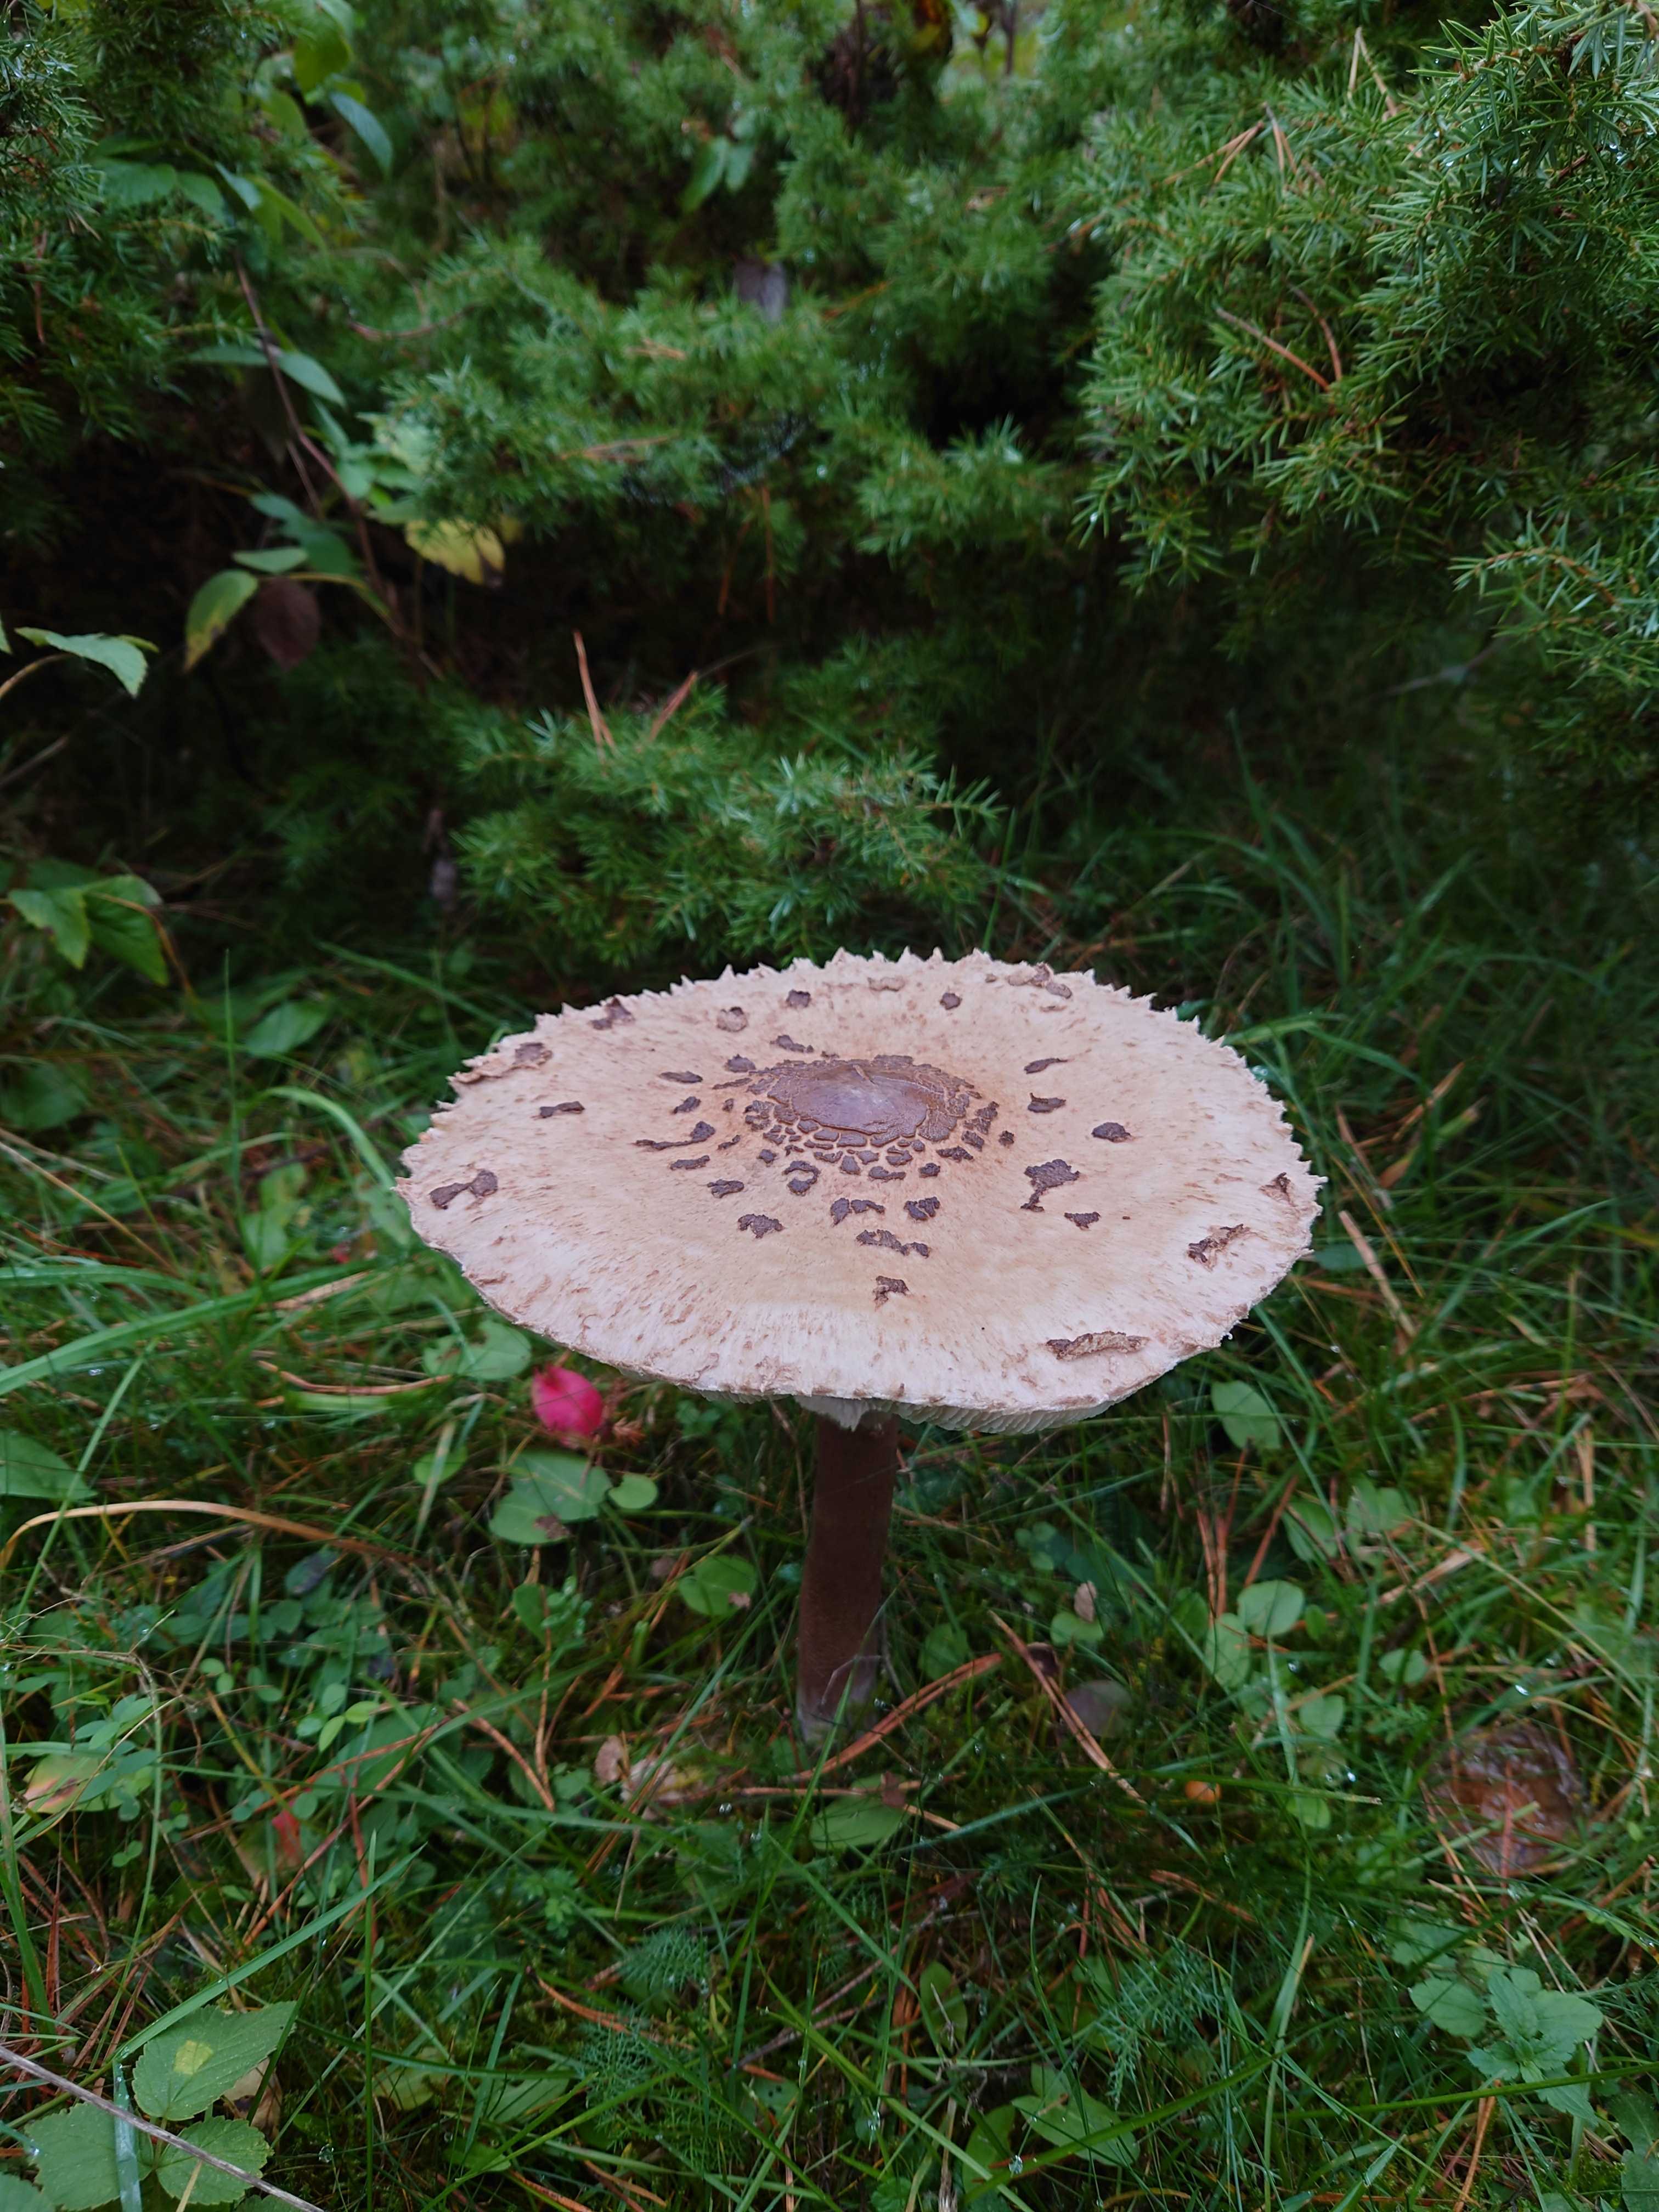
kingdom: Fungi
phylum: Basidiomycota
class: Agaricomycetes
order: Agaricales
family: Agaricaceae
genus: Macrolepiota
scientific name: Macrolepiota
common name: kæmpeparasolhat
